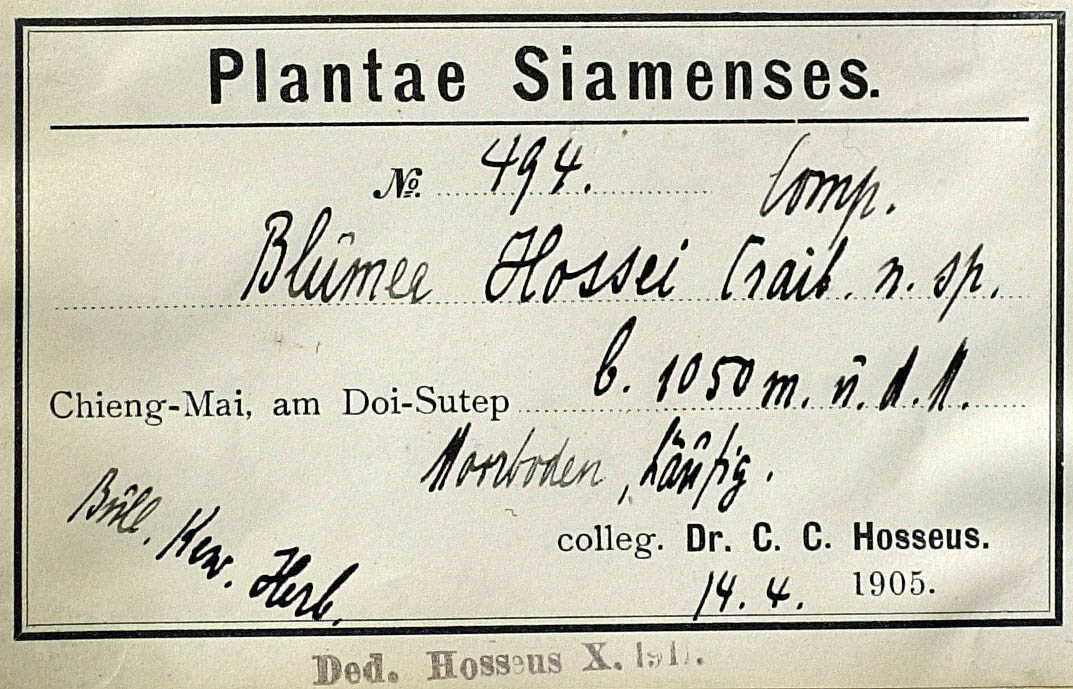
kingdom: Plantae
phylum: Tracheophyta
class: Magnoliopsida
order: Asterales
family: Asteraceae
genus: Blumea
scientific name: Blumea hossei
